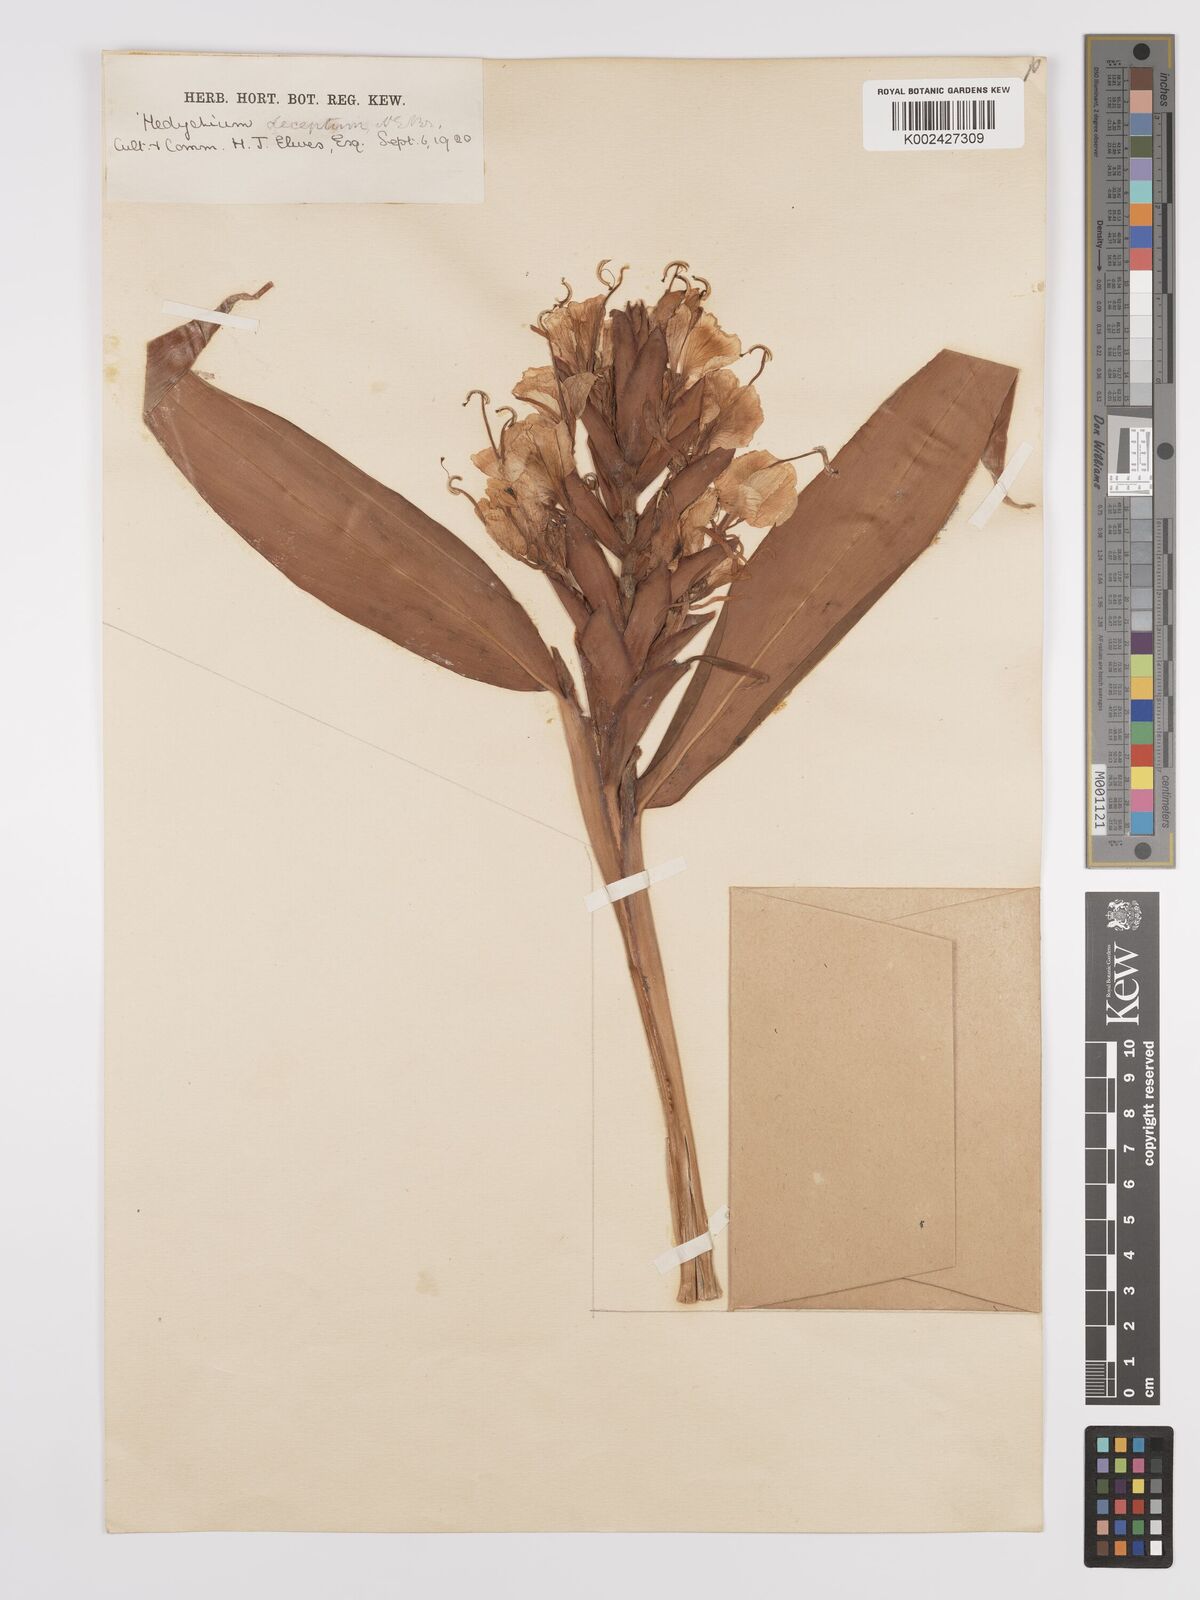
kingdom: Plantae
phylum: Tracheophyta
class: Liliopsida
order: Zingiberales
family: Zingiberaceae
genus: Hedychium
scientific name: Hedychium deceptum
